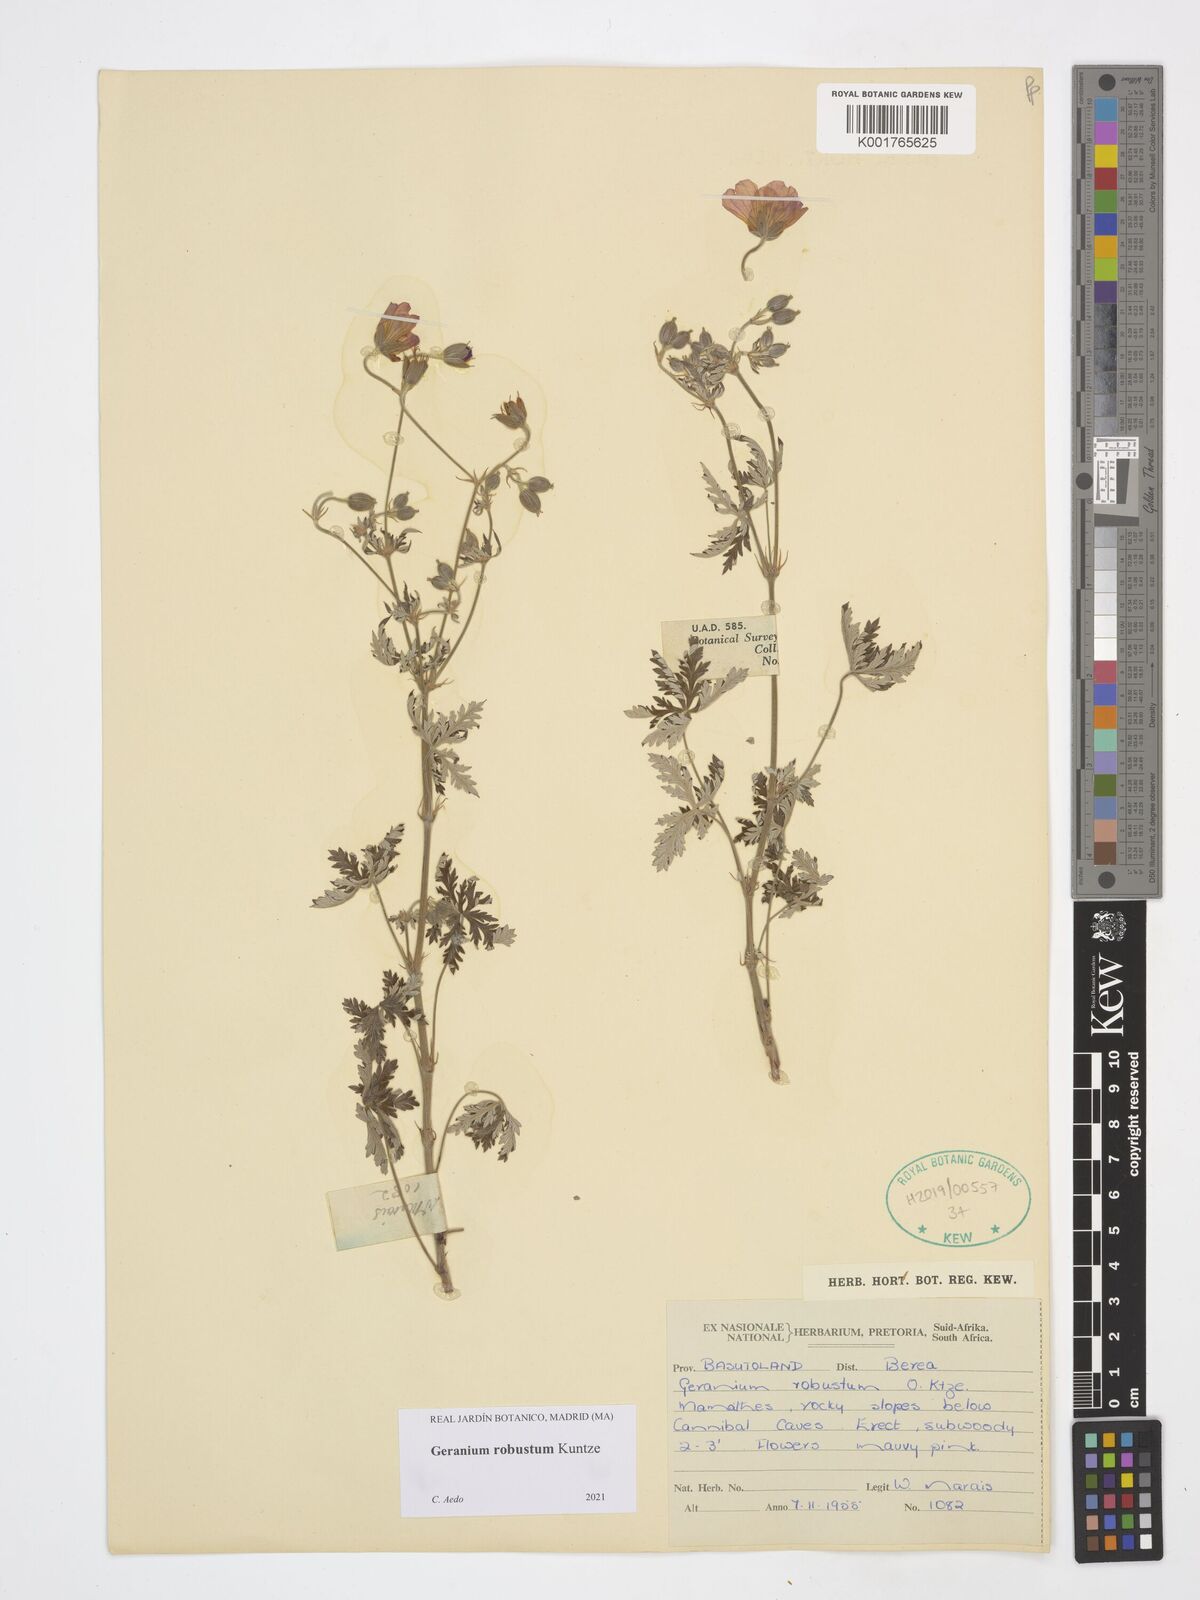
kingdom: Plantae
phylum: Tracheophyta
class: Magnoliopsida
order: Geraniales
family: Geraniaceae
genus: Geranium
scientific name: Geranium robustum
